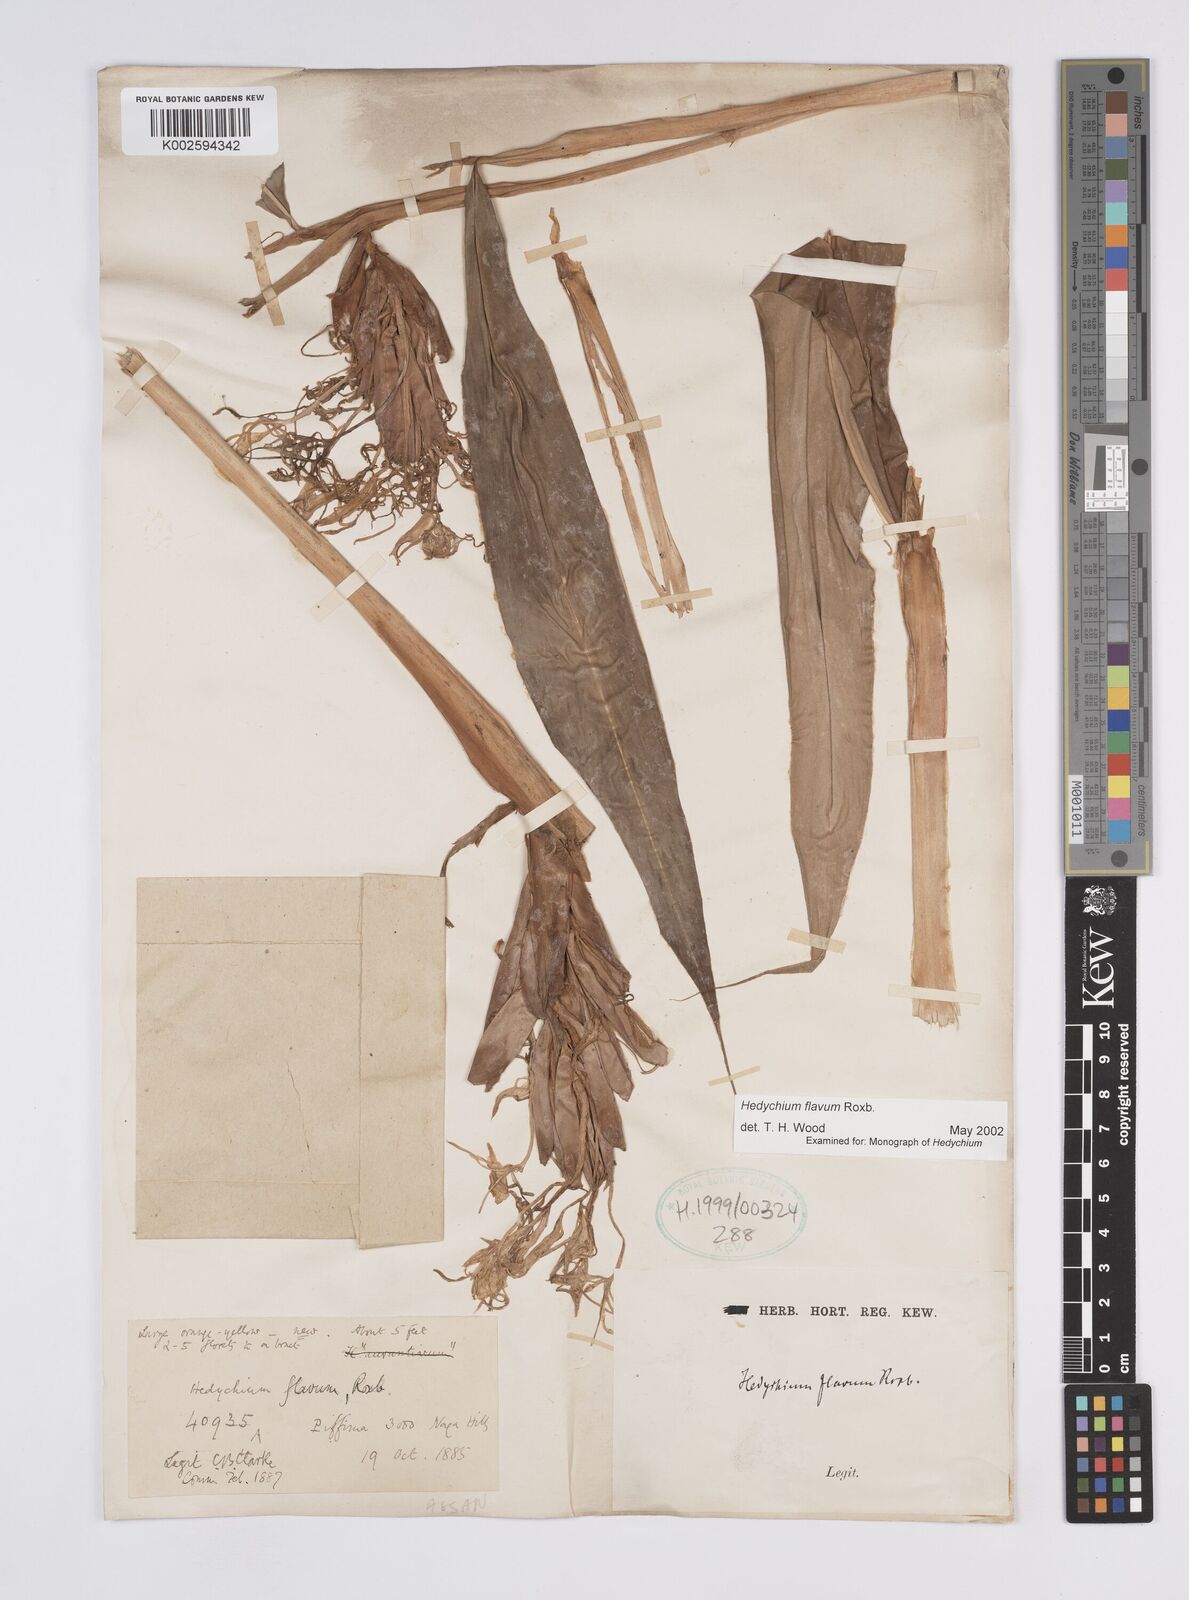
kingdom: Plantae
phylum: Tracheophyta
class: Liliopsida
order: Zingiberales
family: Zingiberaceae
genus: Hedychium
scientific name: Hedychium flavum
